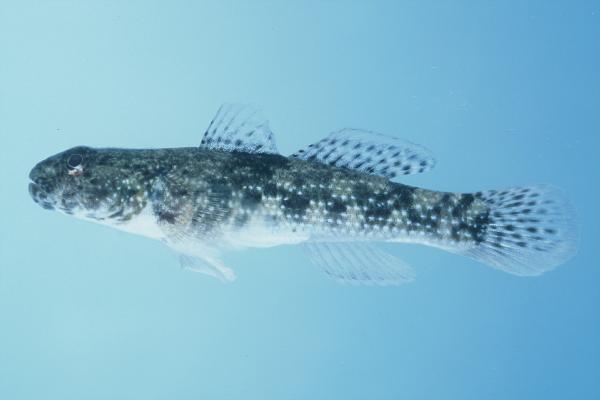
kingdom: Animalia
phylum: Chordata
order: Perciformes
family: Gobiidae
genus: Bathygobius
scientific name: Bathygobius coalitus
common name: Whitespotted goby
